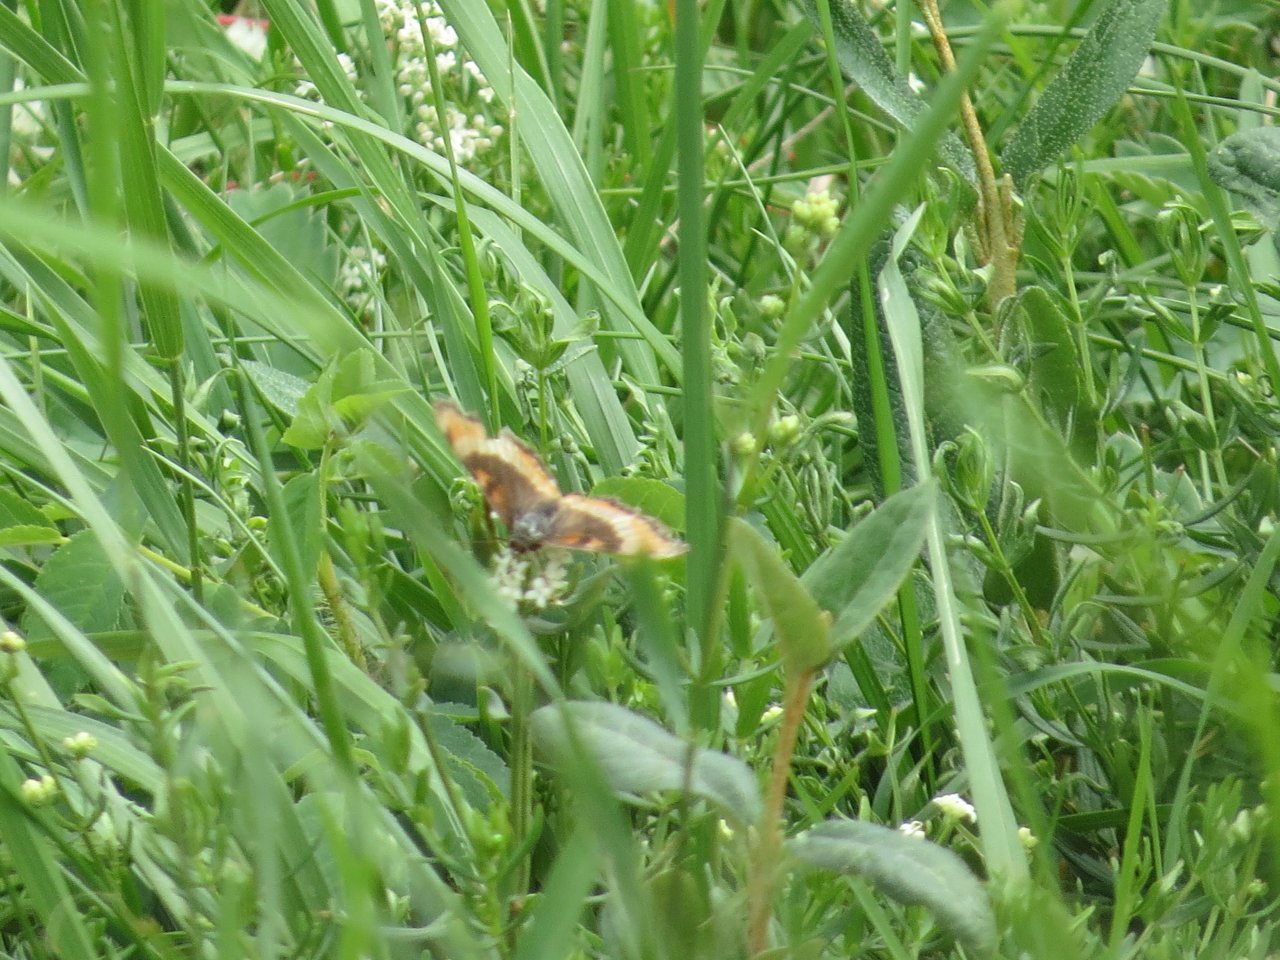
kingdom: Animalia
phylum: Arthropoda
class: Insecta
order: Lepidoptera
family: Nymphalidae
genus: Aglais
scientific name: Aglais milberti
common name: Milbert's Tortoiseshell
